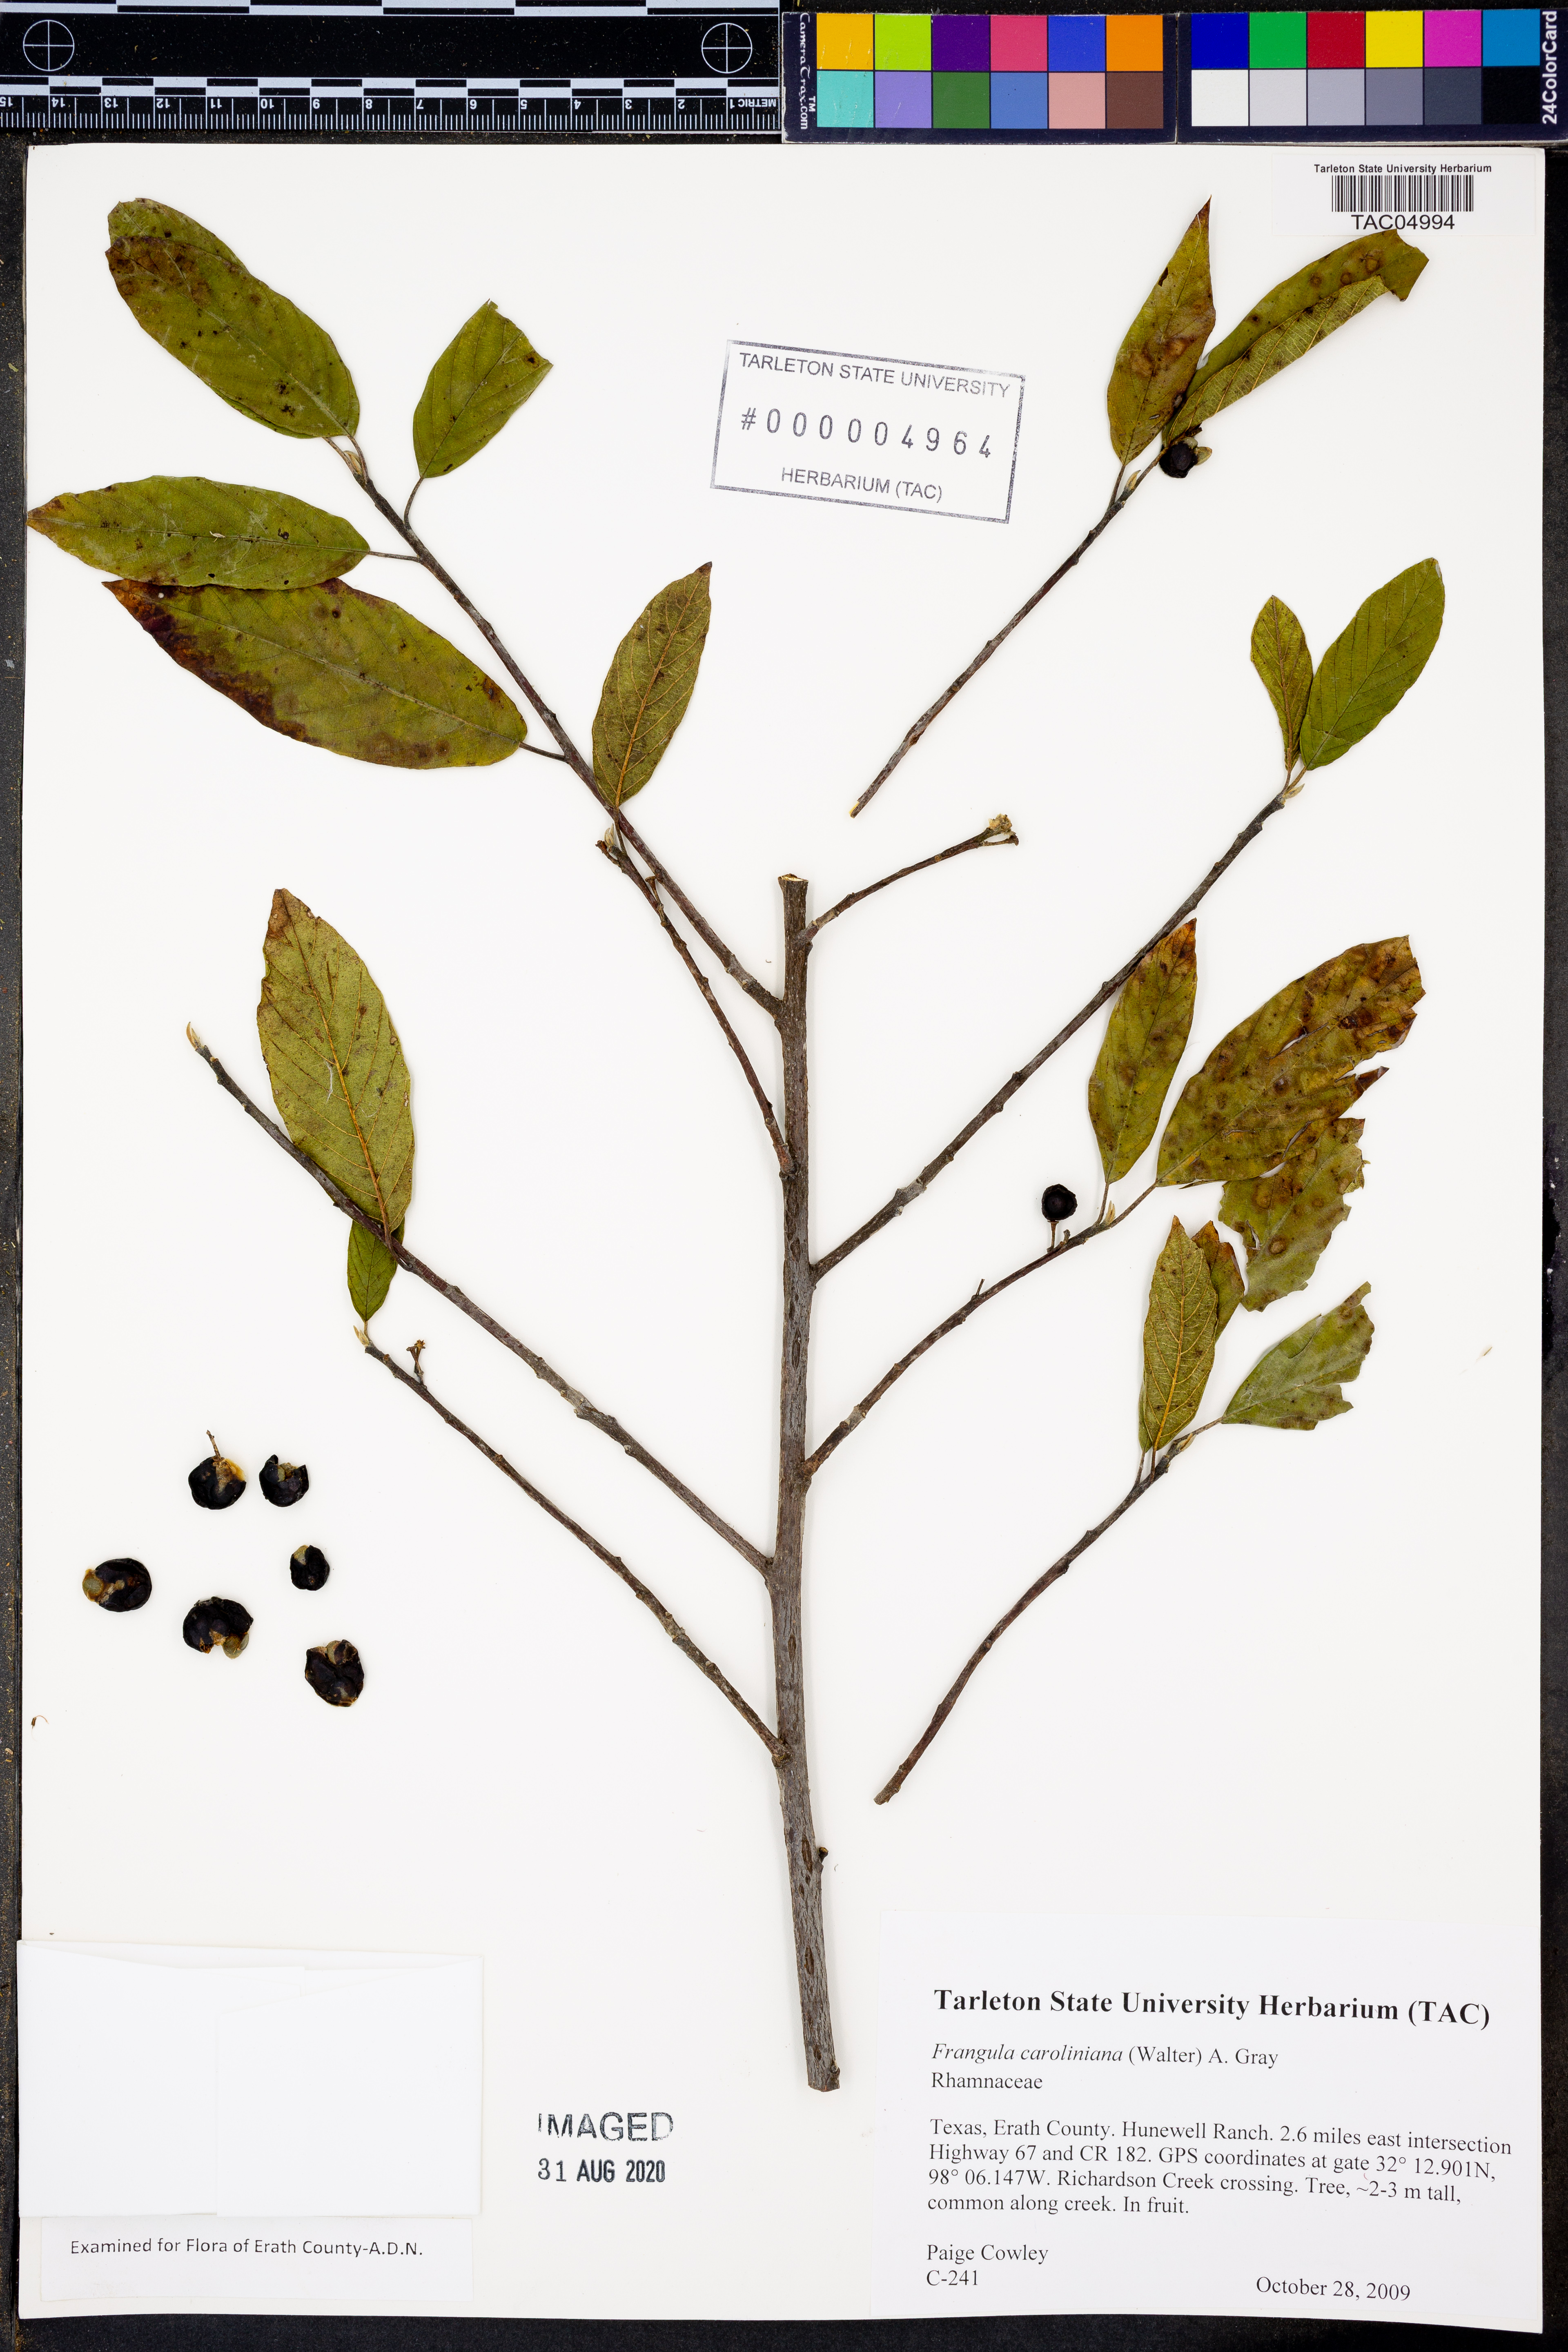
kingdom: Plantae
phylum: Tracheophyta
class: Magnoliopsida
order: Rosales
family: Rhamnaceae
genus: Frangula
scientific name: Frangula caroliniana
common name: Carolina buckthorn
